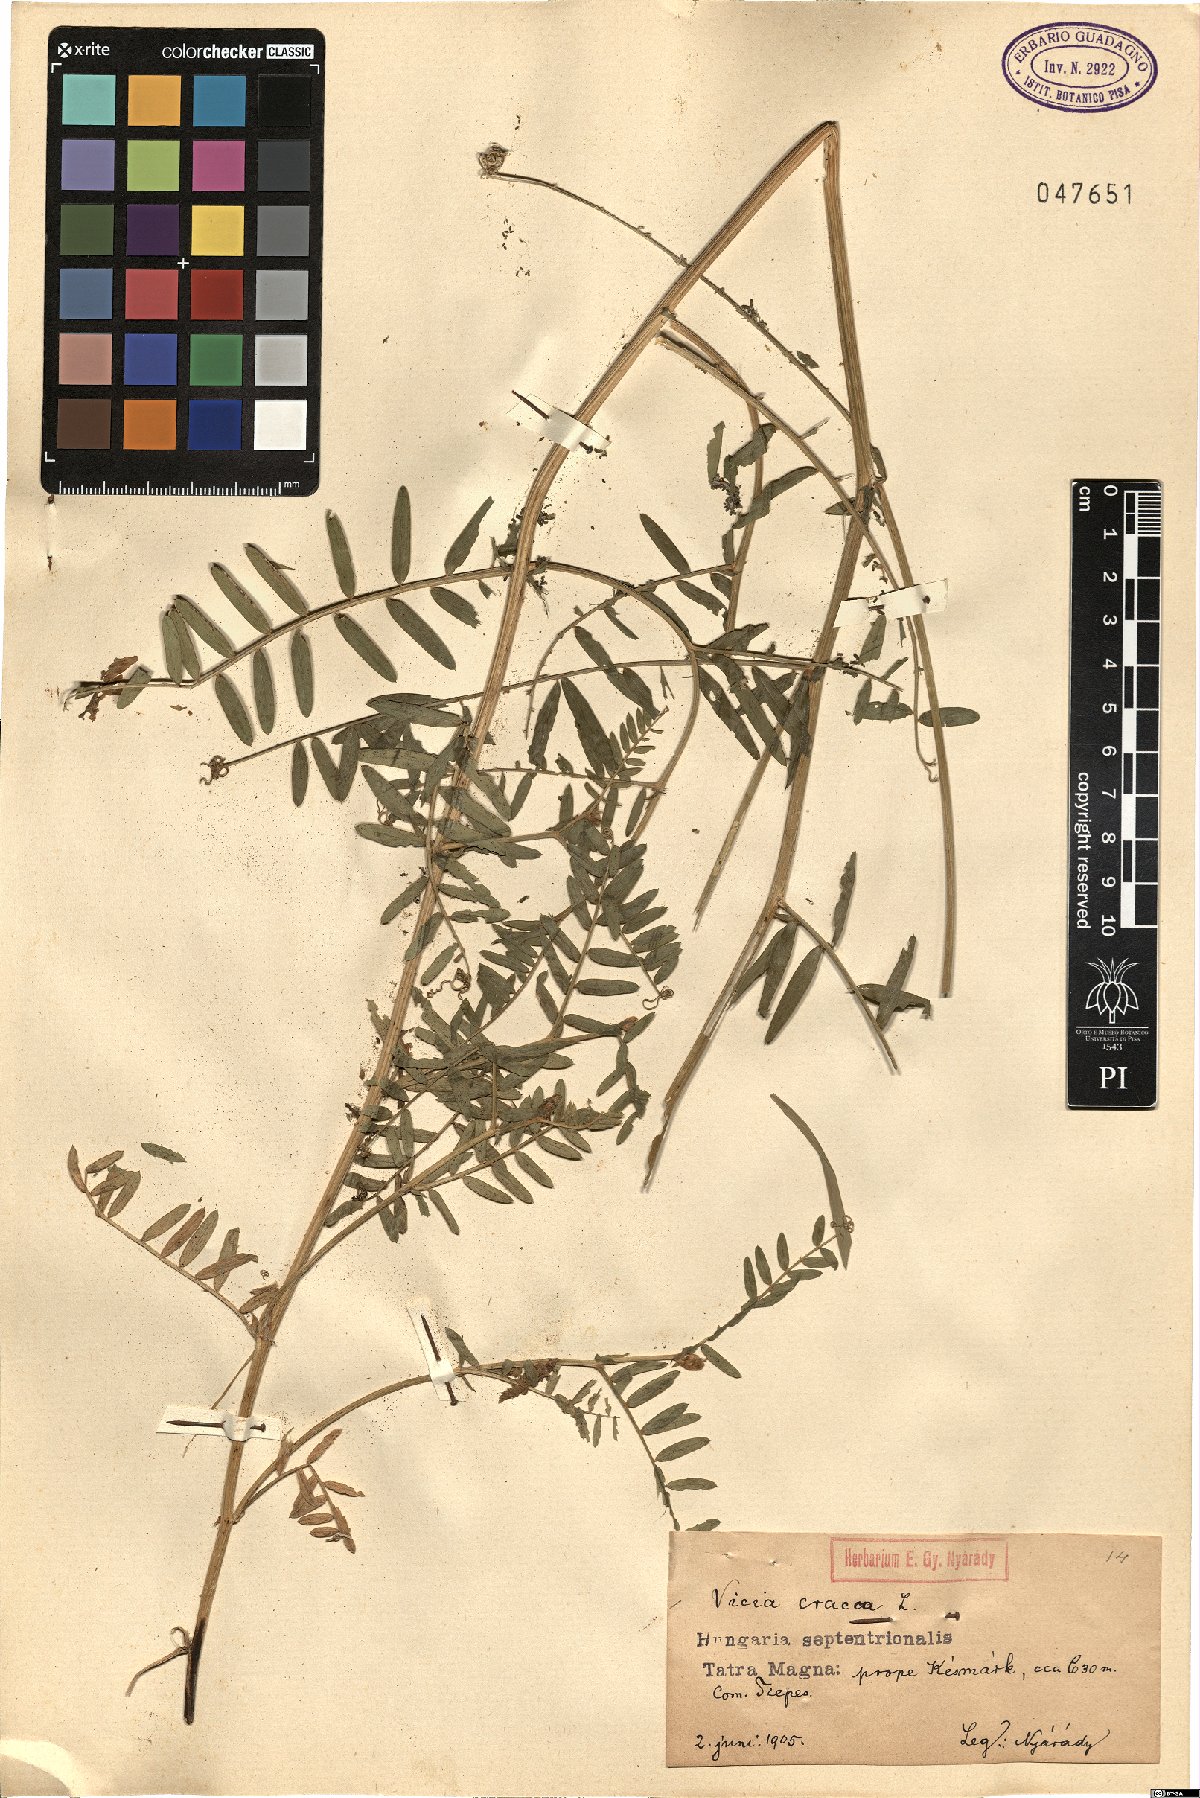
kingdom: Plantae
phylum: Tracheophyta
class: Magnoliopsida
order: Fabales
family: Fabaceae
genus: Vicia
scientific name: Vicia cracca
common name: Bird vetch
